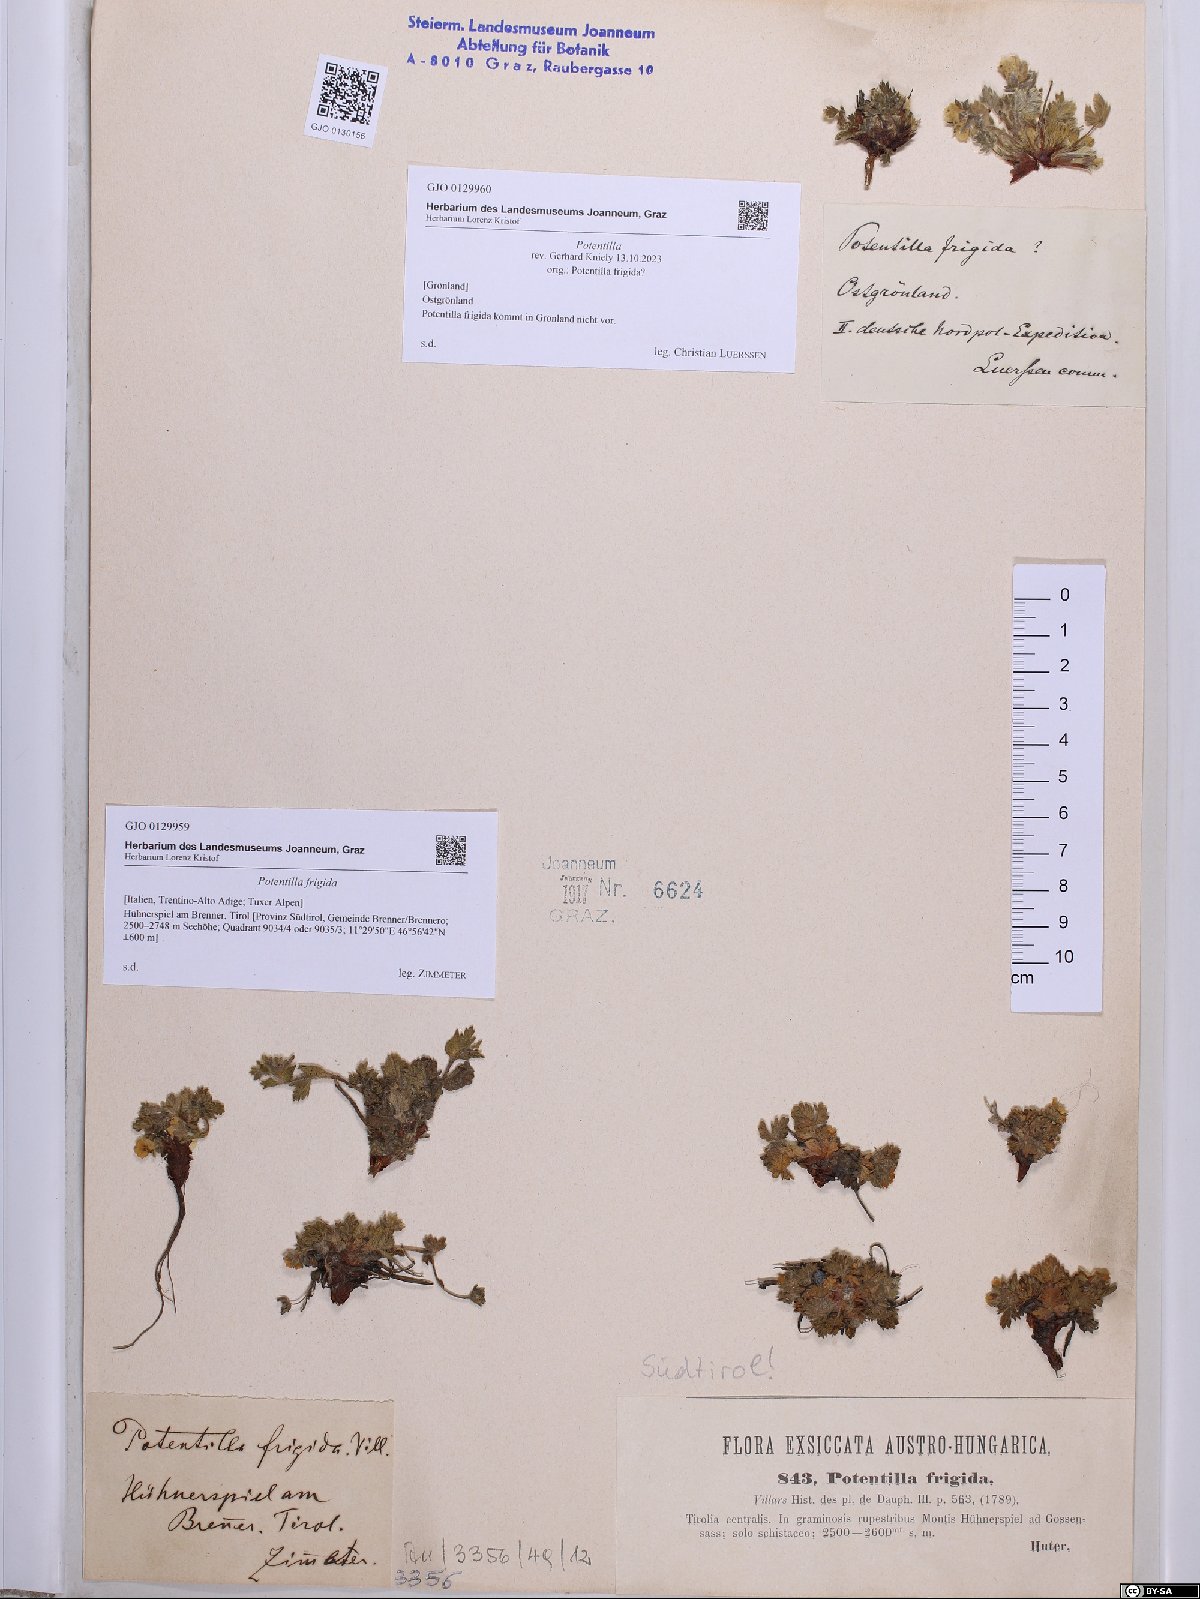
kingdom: Plantae
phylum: Tracheophyta
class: Magnoliopsida
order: Rosales
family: Rosaceae
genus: Potentilla
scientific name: Potentilla
